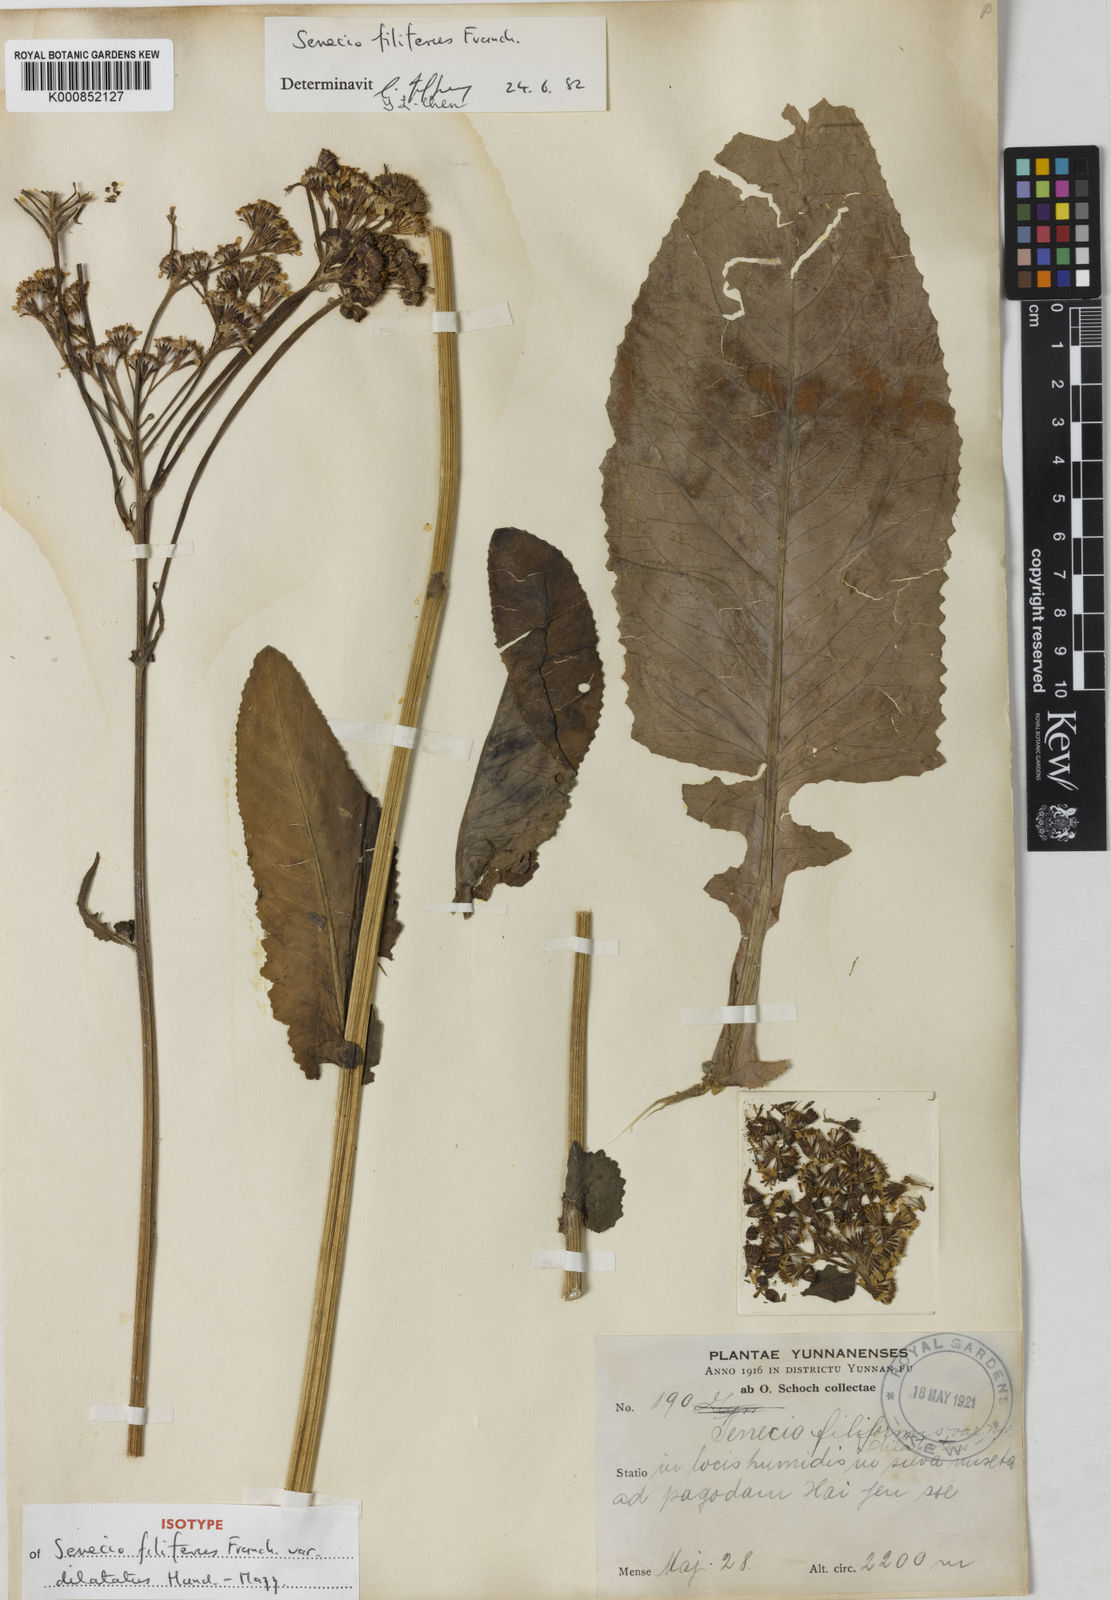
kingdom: Plantae
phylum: Tracheophyta
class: Magnoliopsida
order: Asterales
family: Asteraceae
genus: Senecio
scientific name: Senecio filiferus
